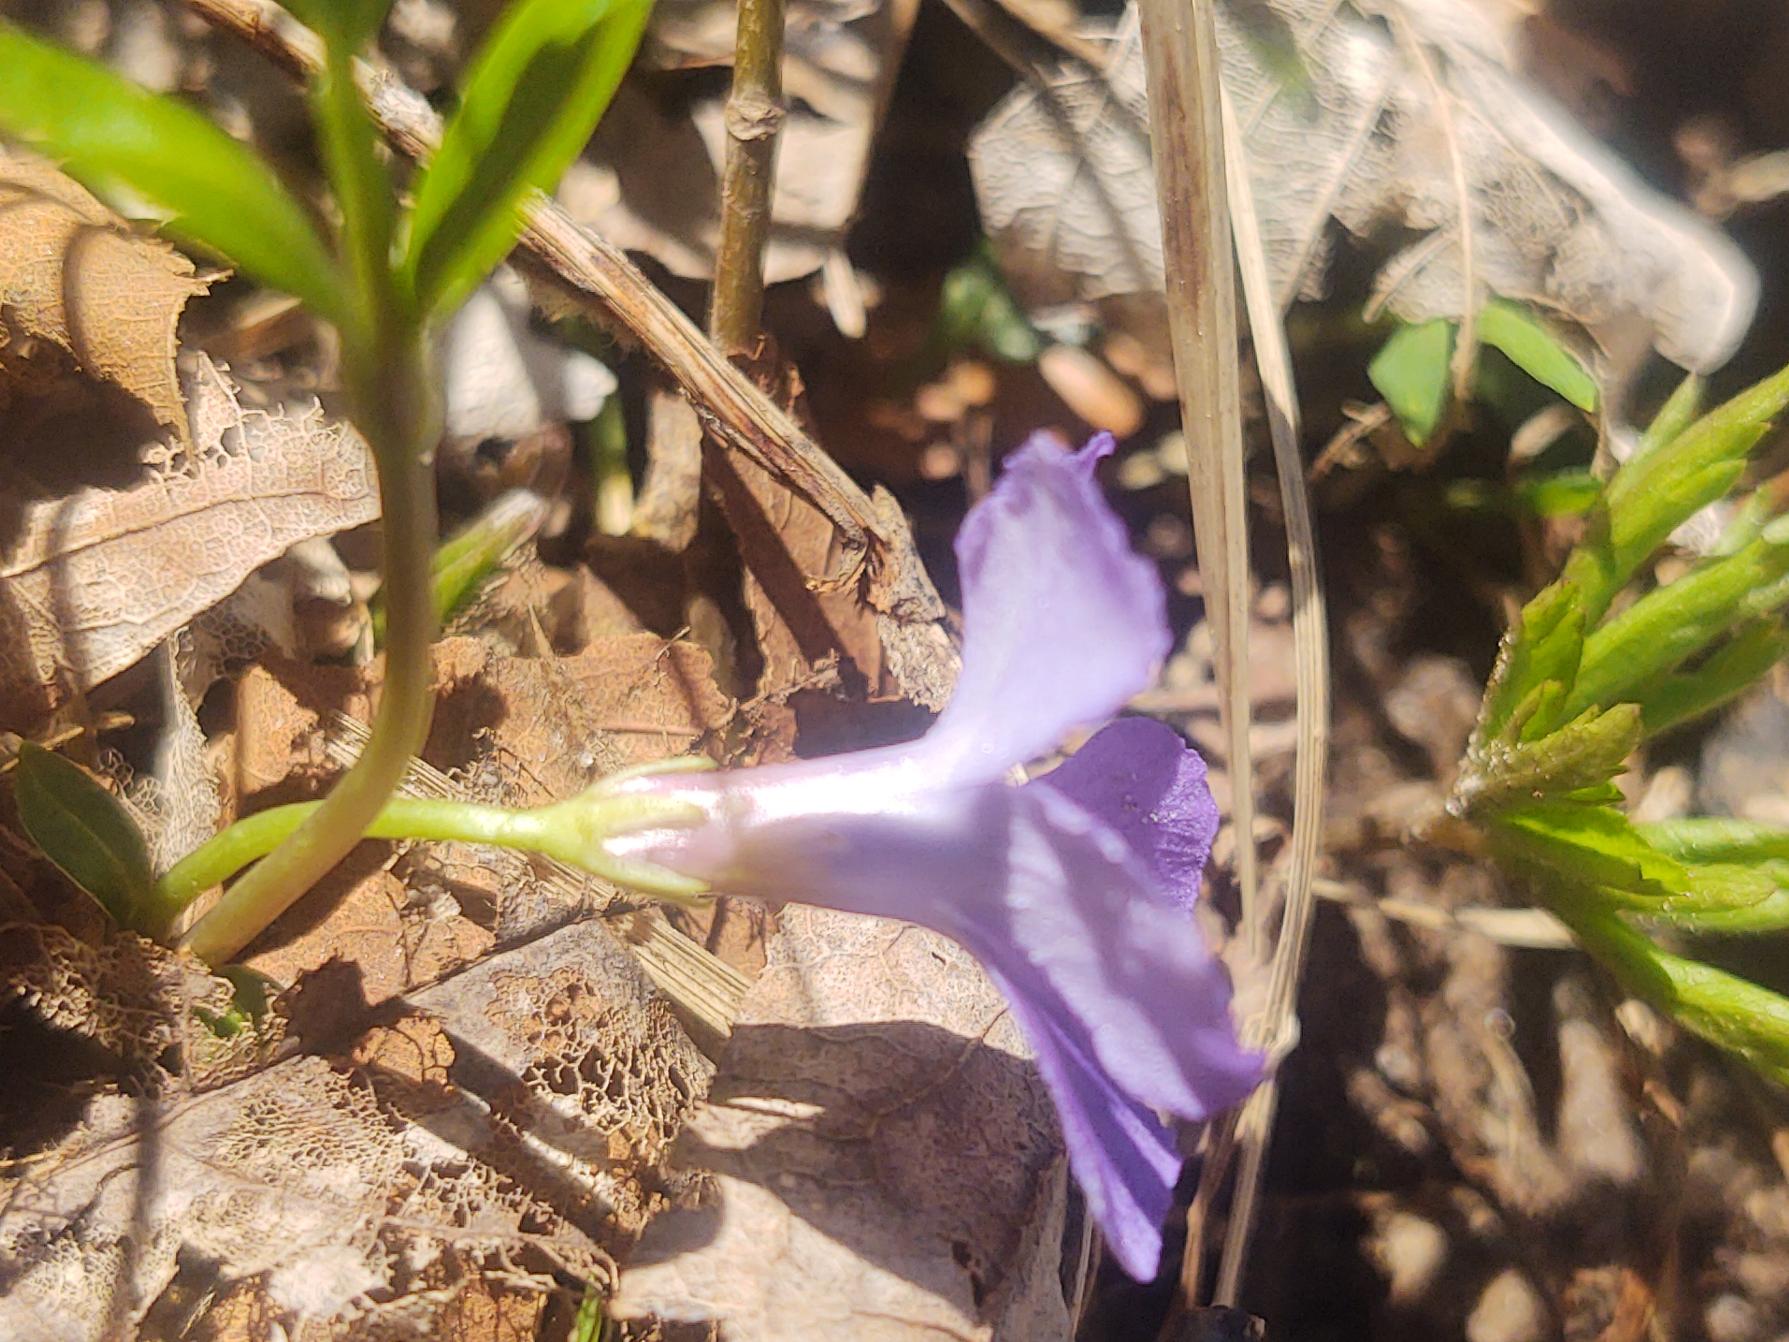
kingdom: Plantae
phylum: Tracheophyta
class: Magnoliopsida
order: Gentianales
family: Apocynaceae
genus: Vinca
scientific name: Vinca minor
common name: Liden singrøn
